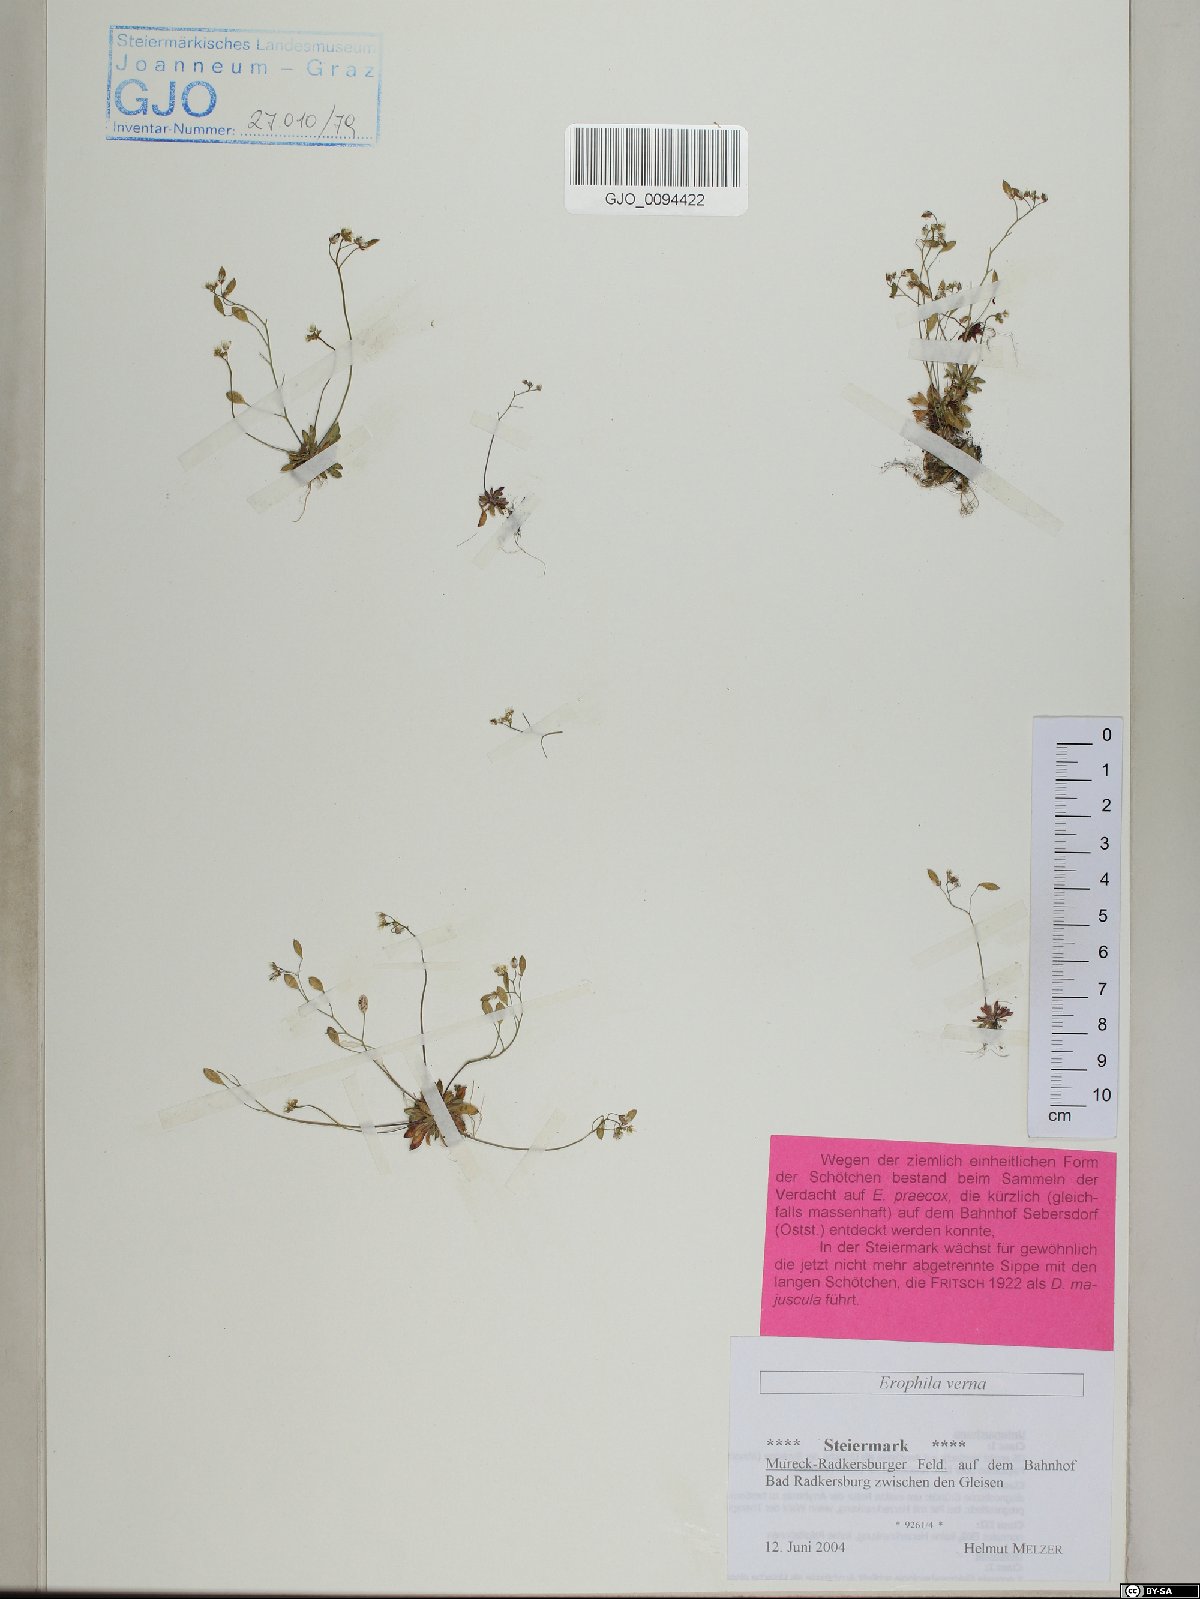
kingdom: Plantae
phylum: Tracheophyta
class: Magnoliopsida
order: Brassicales
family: Brassicaceae
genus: Draba
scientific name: Draba verna
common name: Spring draba
